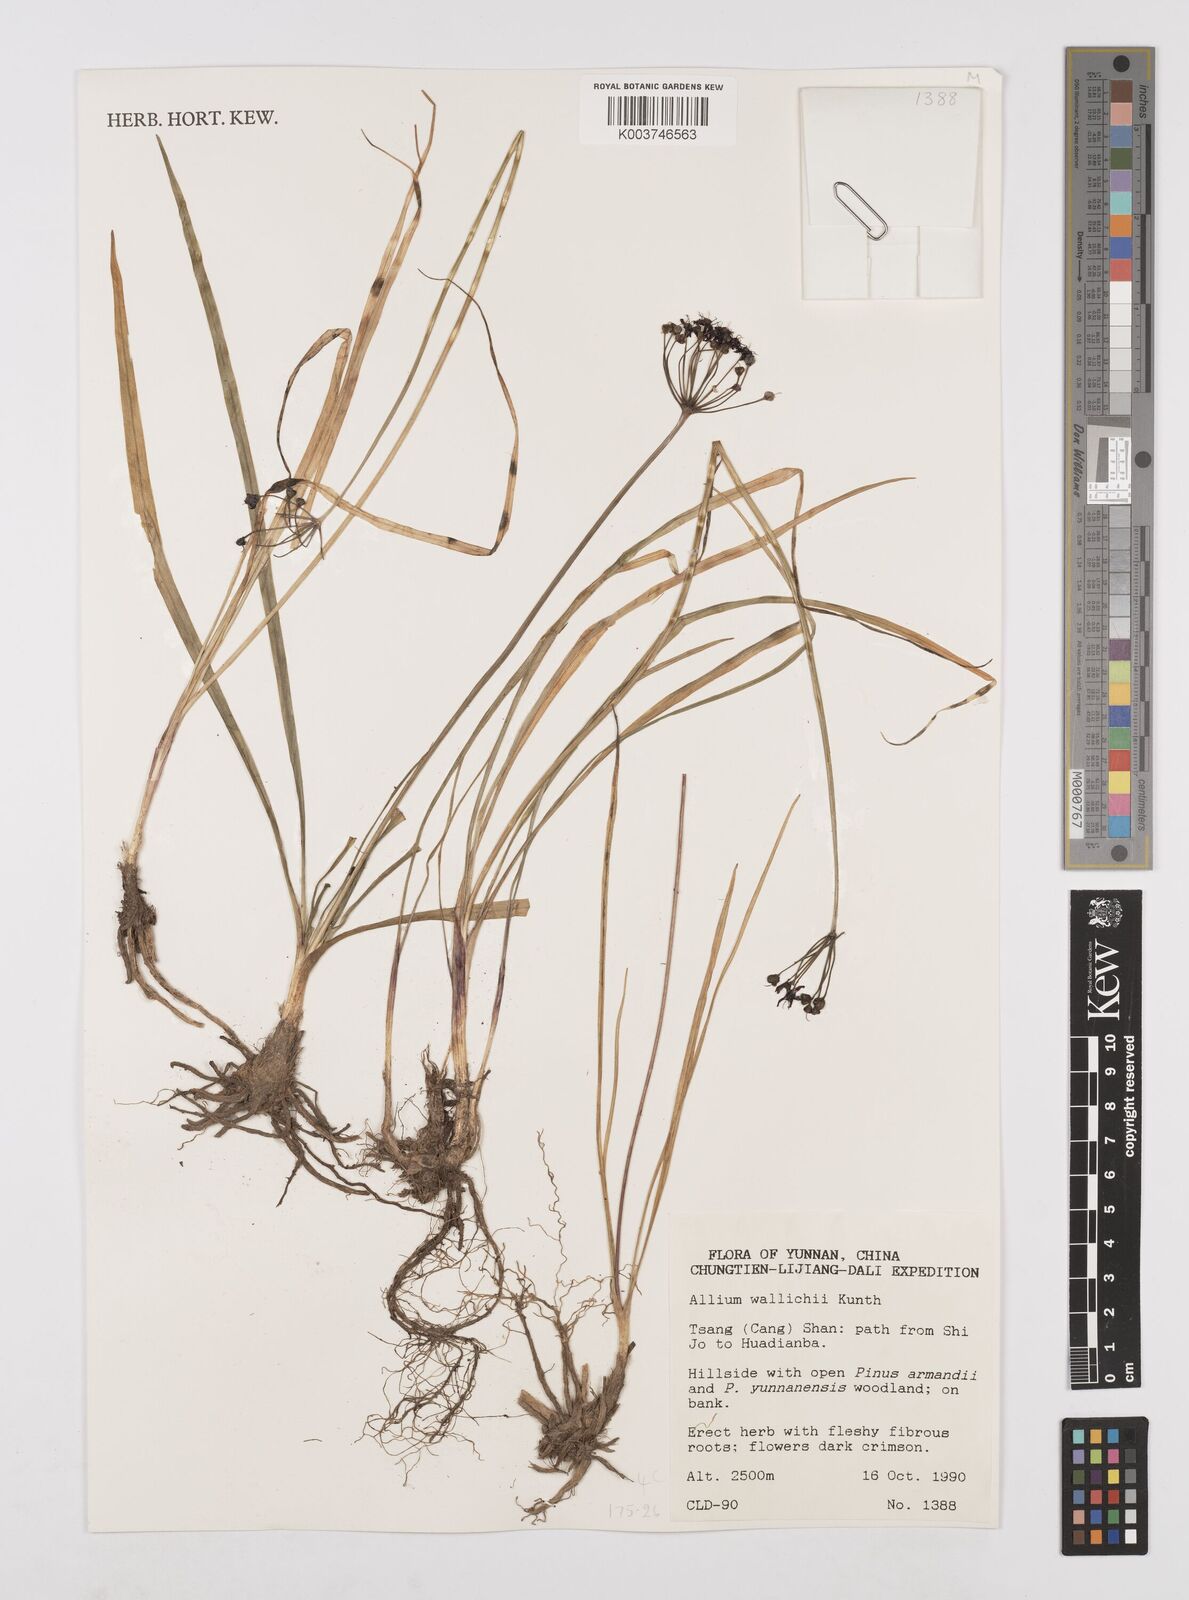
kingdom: Plantae
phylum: Tracheophyta
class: Liliopsida
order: Asparagales
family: Amaryllidaceae
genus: Allium
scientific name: Allium wallichii
